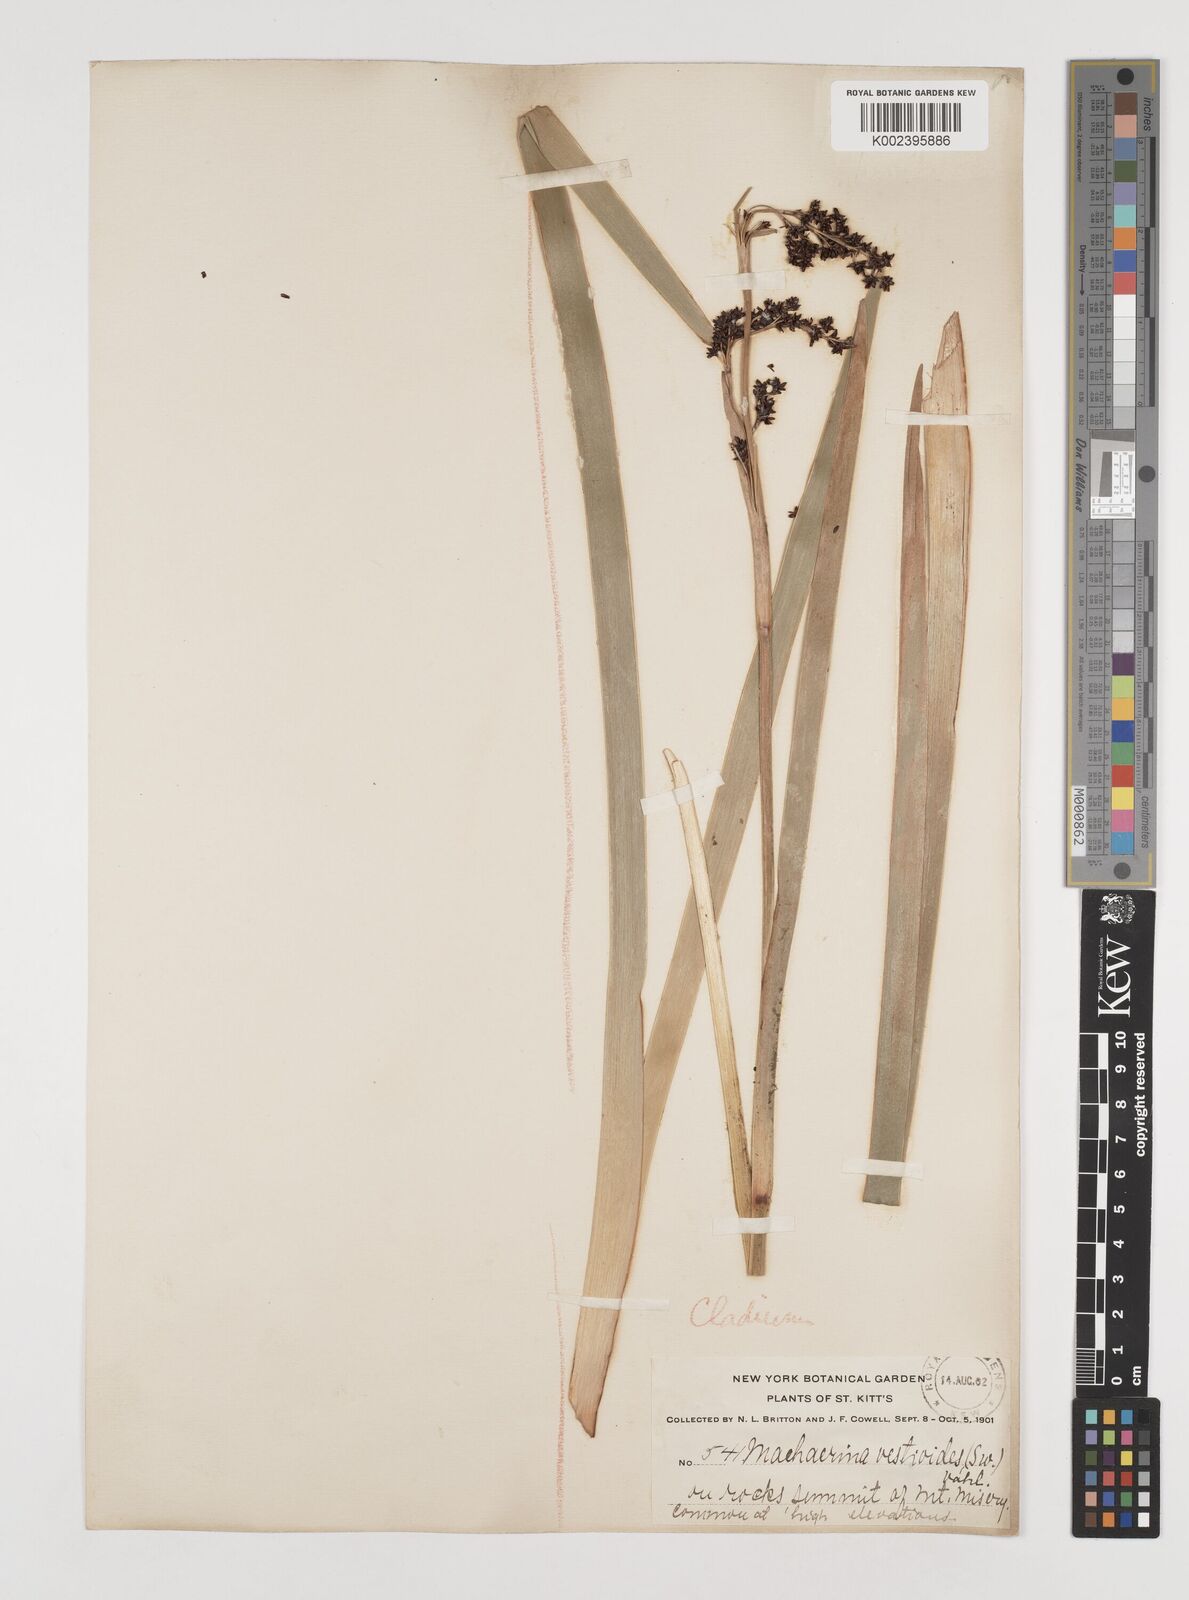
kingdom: Plantae
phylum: Tracheophyta
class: Liliopsida
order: Poales
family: Cyperaceae
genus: Machaerina
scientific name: Machaerina restioides
